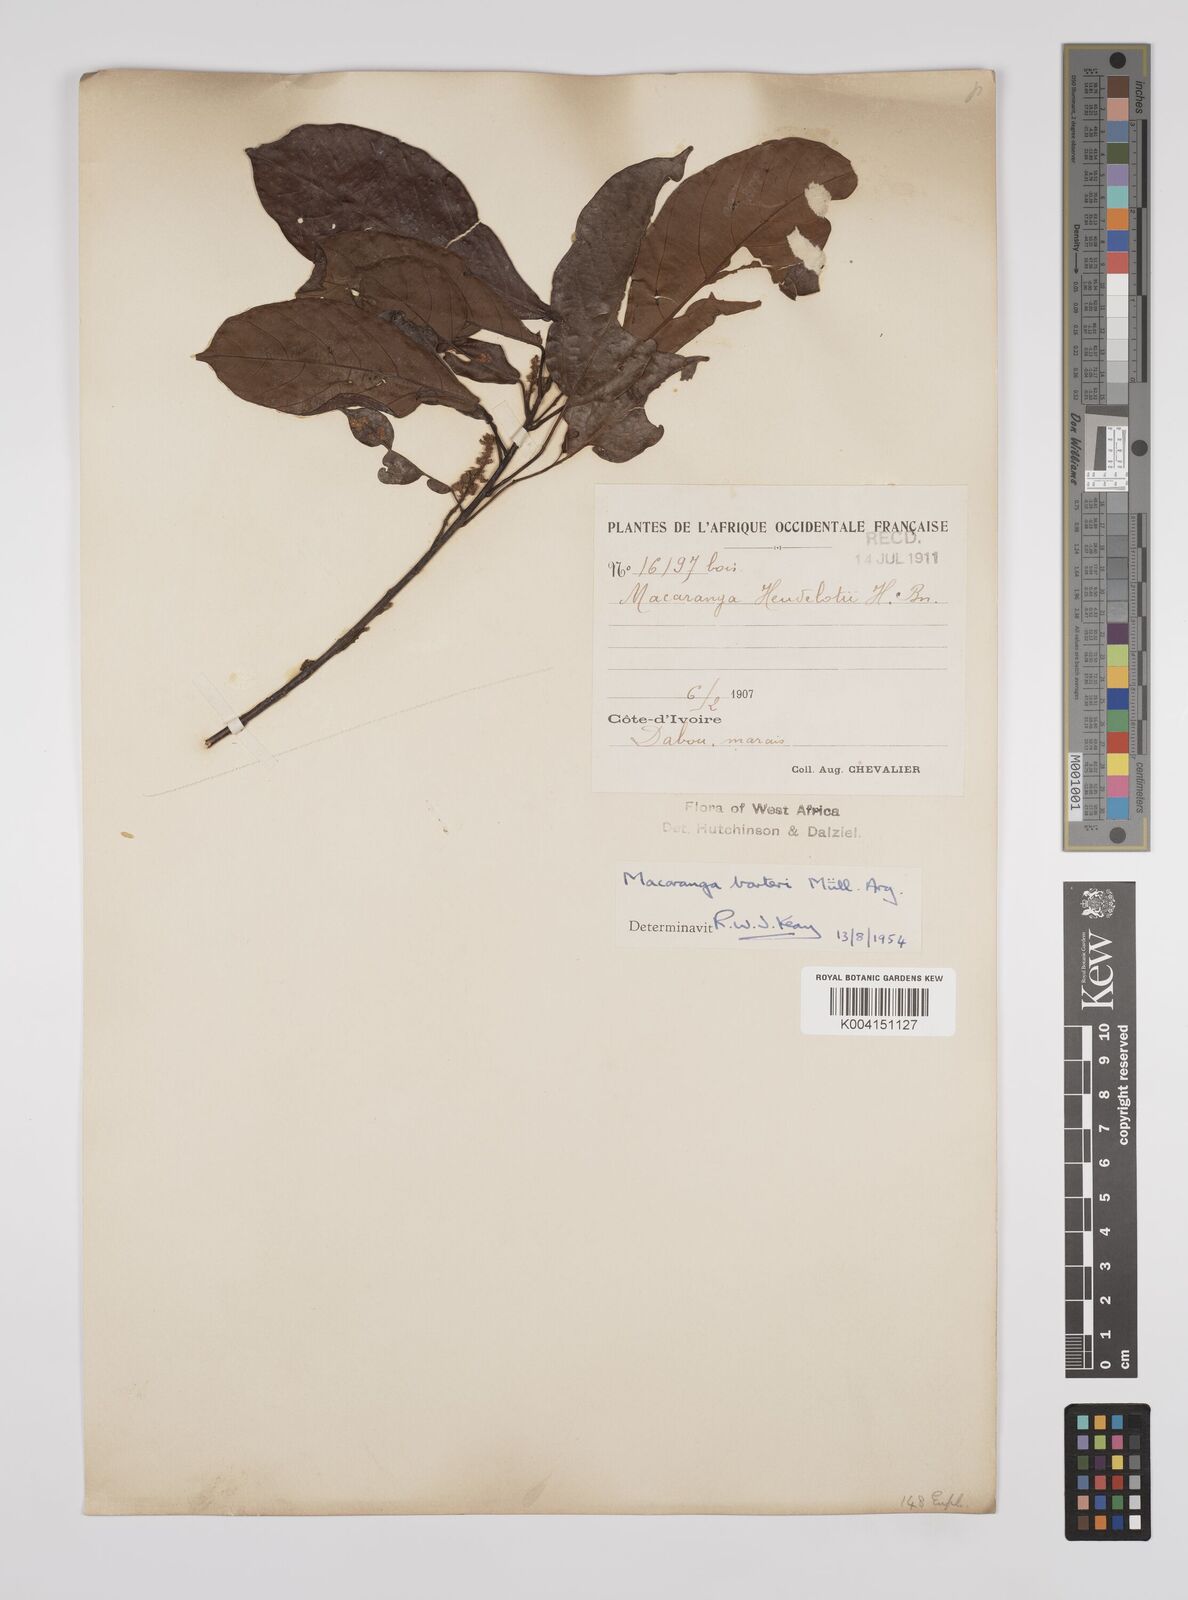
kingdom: Plantae
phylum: Tracheophyta
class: Magnoliopsida
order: Malpighiales
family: Euphorbiaceae
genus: Macaranga
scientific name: Macaranga barteri
